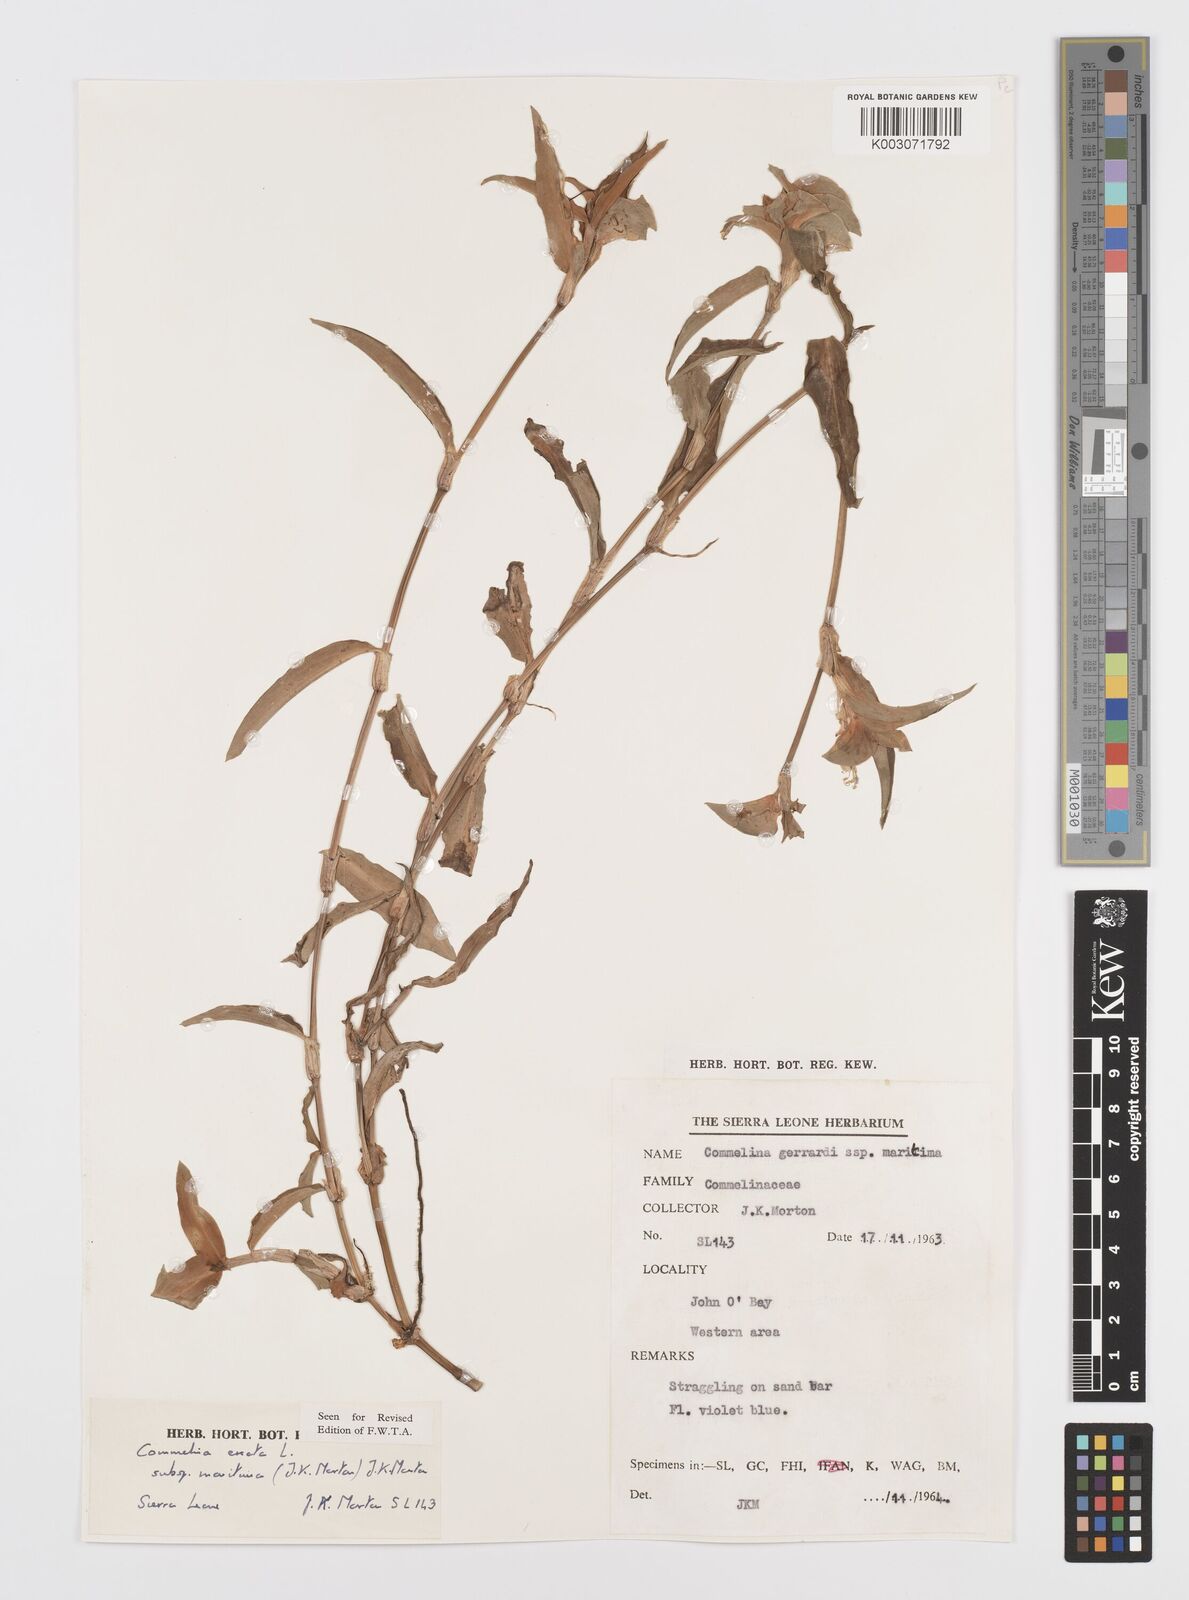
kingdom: Plantae
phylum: Tracheophyta
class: Liliopsida
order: Commelinales
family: Commelinaceae
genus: Commelina
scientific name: Commelina erecta
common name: Blousel blommetjie
